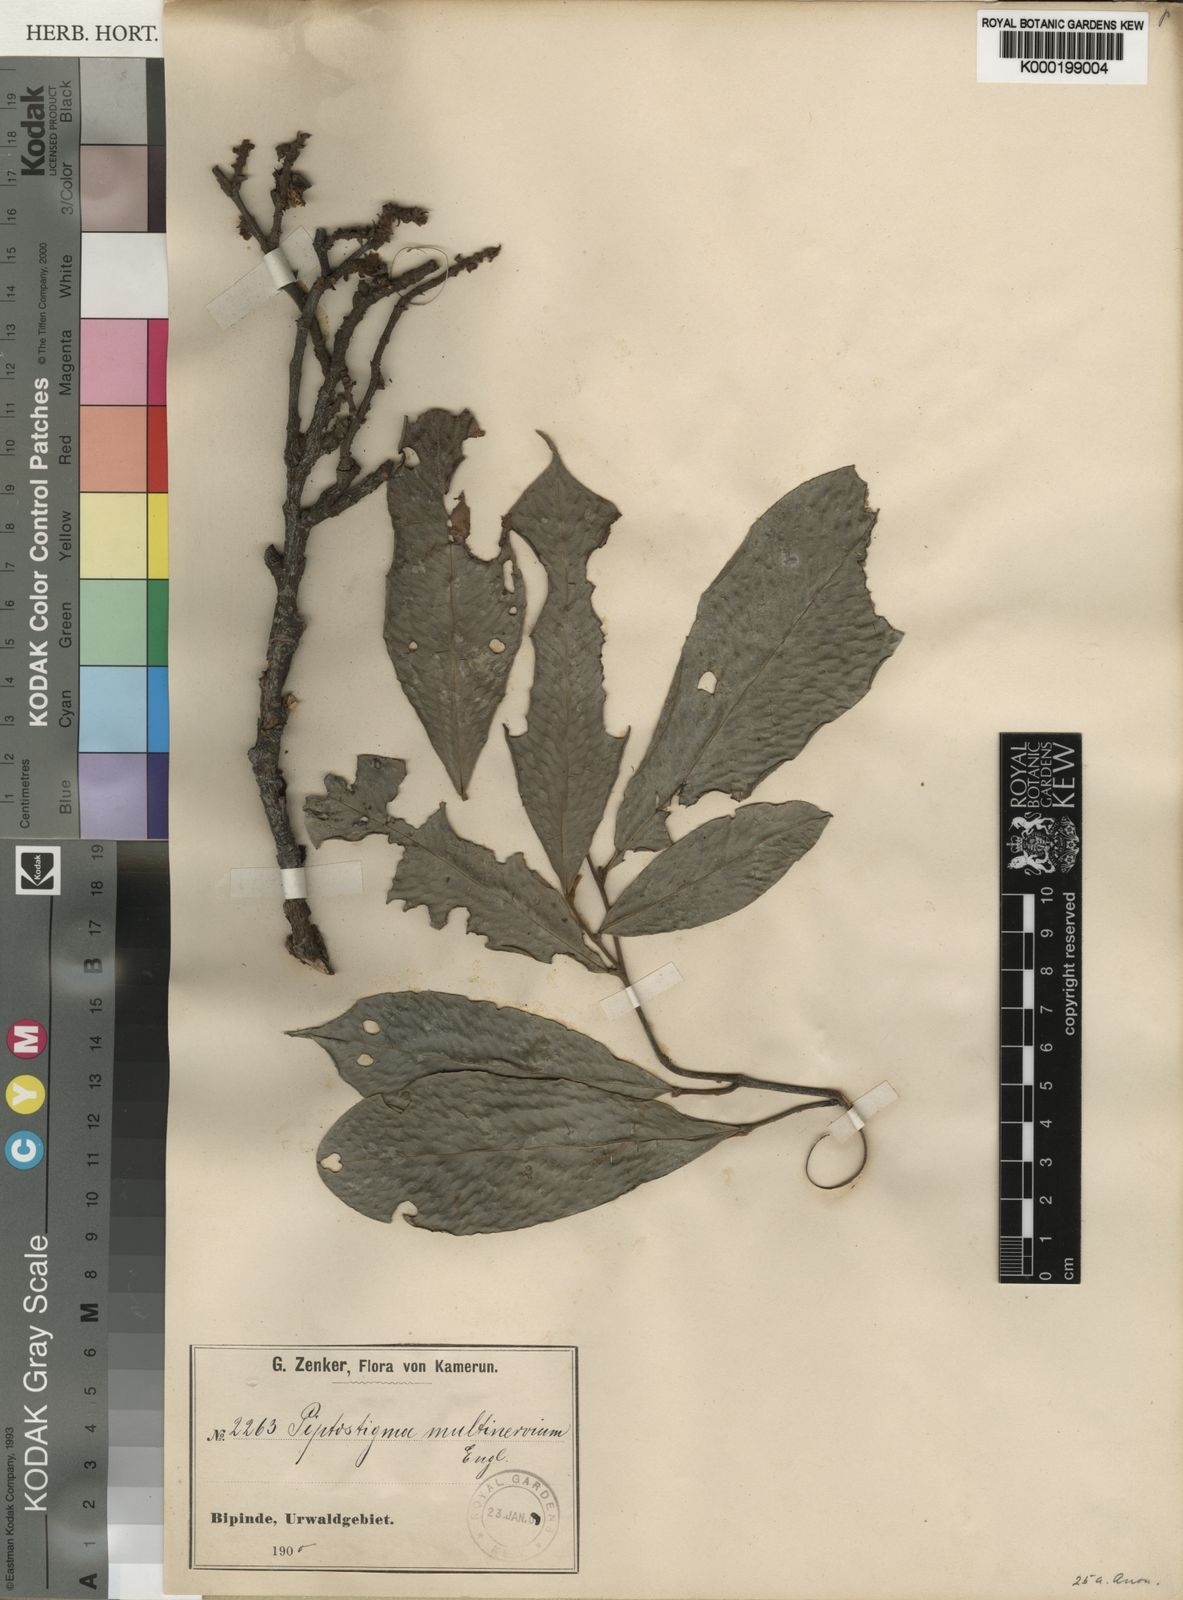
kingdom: Plantae
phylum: Tracheophyta
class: Magnoliopsida
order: Magnoliales
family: Annonaceae
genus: Piptostigma
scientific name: Piptostigma multinervium
